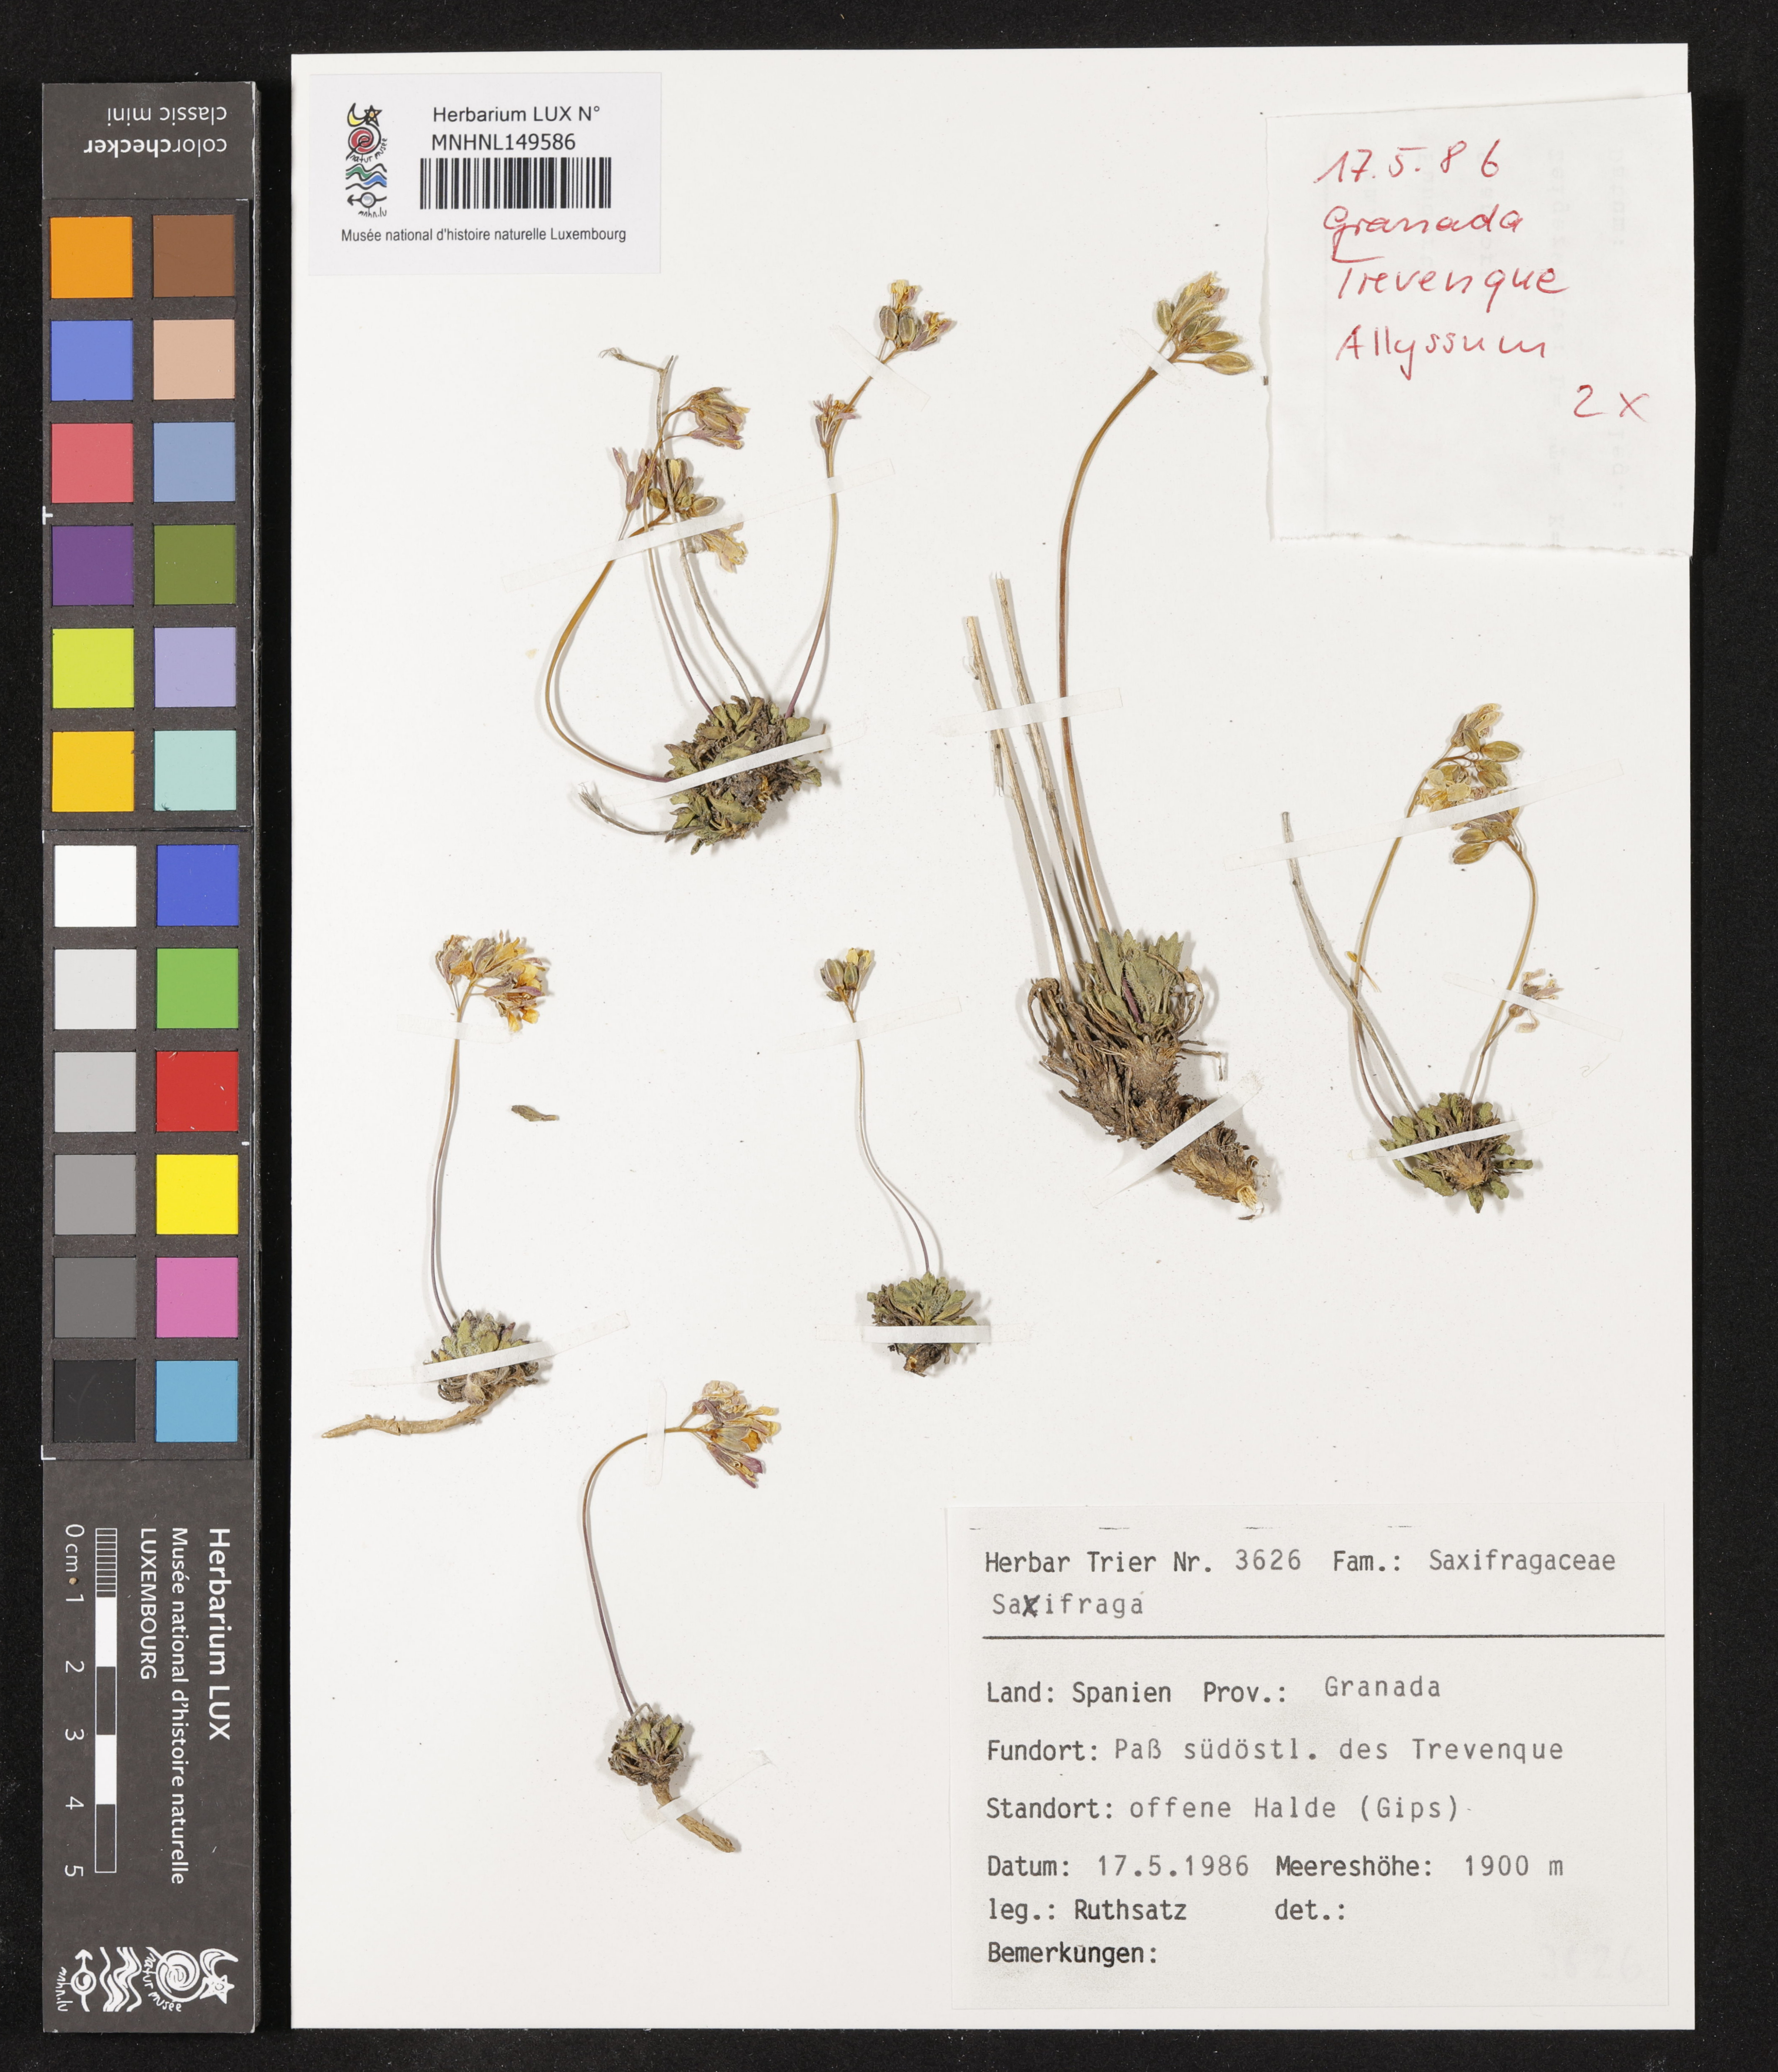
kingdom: Plantae
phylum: Tracheophyta
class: Magnoliopsida
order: Saxifragales
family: Saxifragaceae
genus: Saxifraga
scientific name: Saxifraga
